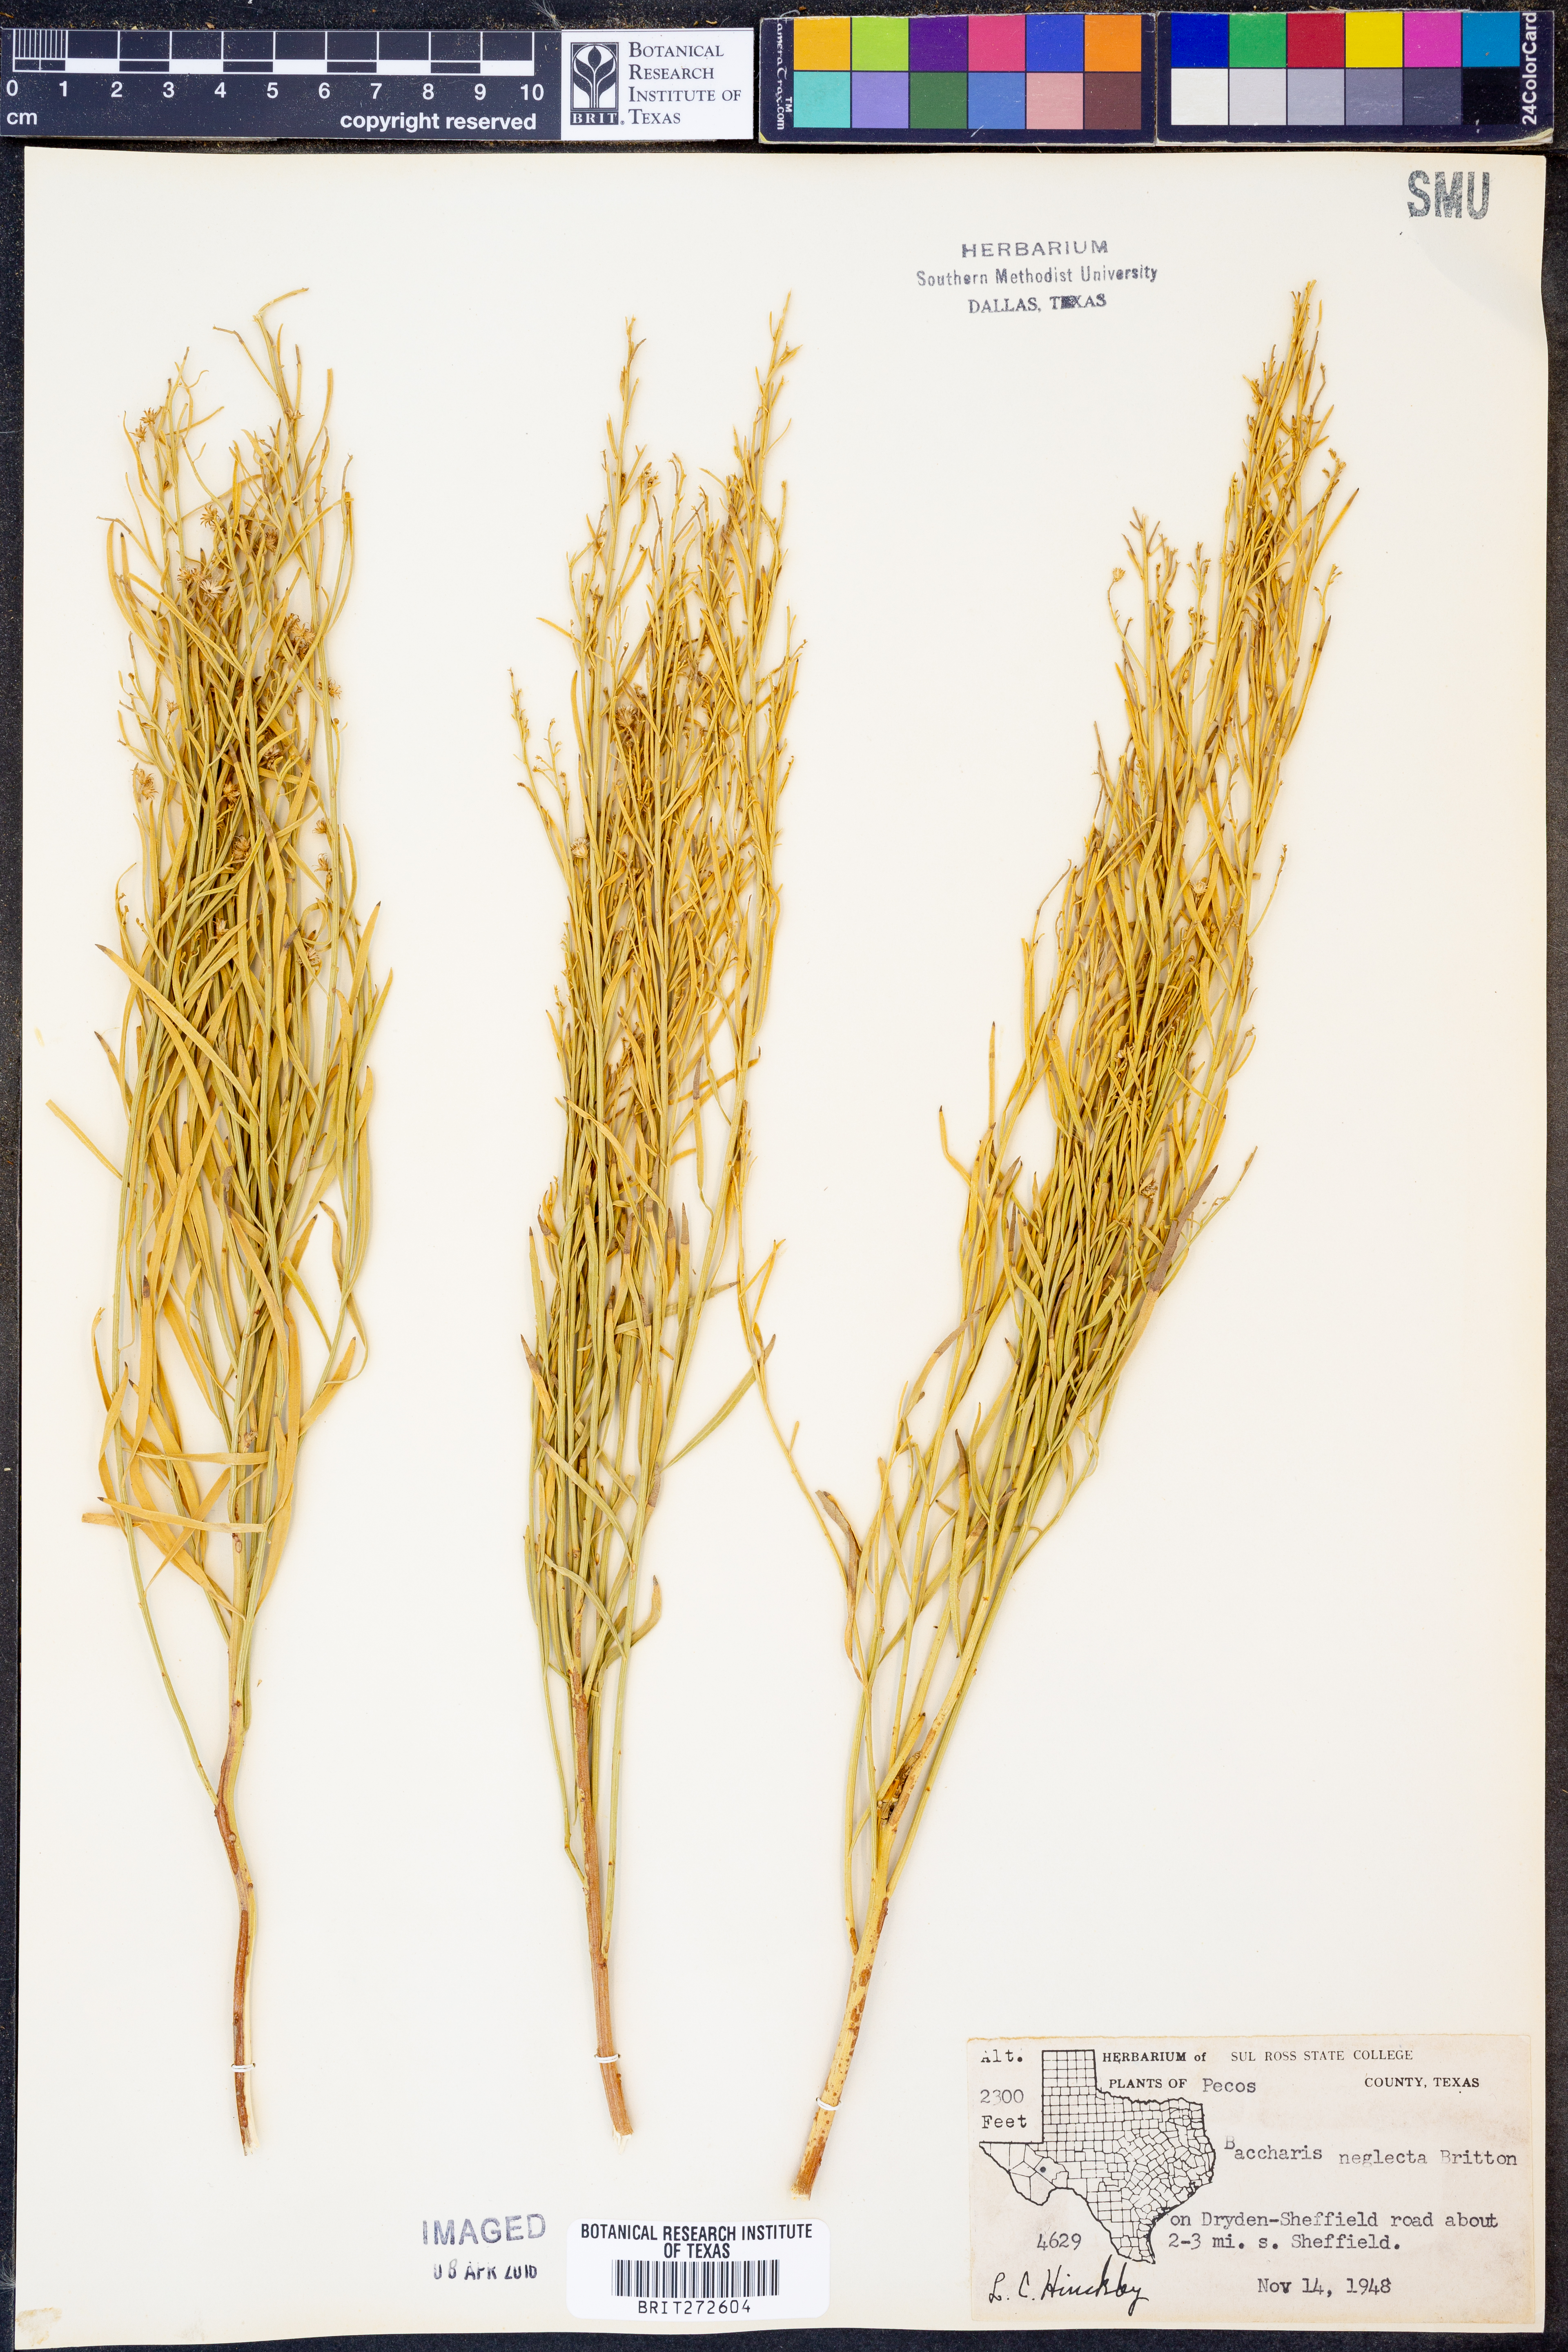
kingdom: Plantae
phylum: Tracheophyta
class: Magnoliopsida
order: Asterales
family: Asteraceae
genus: Baccharis
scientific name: Baccharis neglecta
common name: Roosevelt-weed
